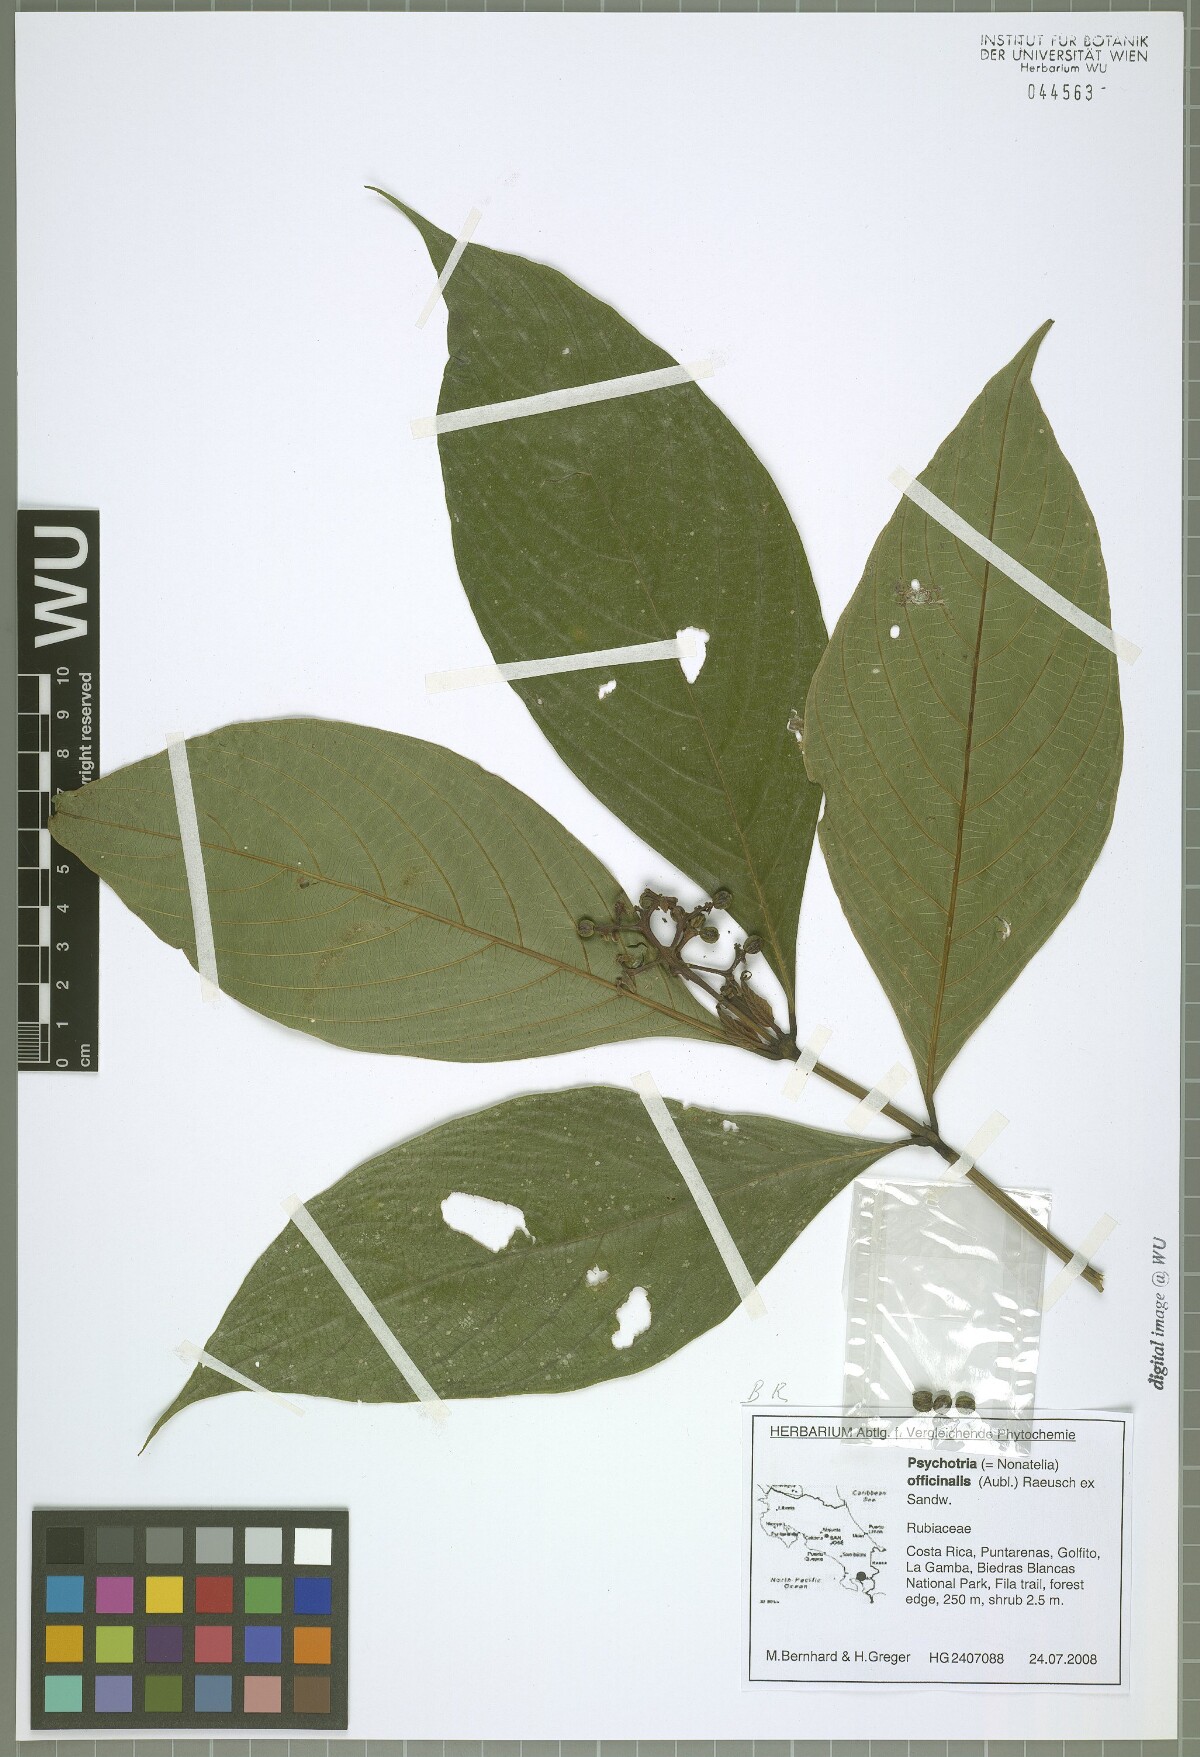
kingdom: Plantae
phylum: Tracheophyta
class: Magnoliopsida
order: Gentianales
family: Rubiaceae
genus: Palicourea
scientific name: Palicourea winkleri
